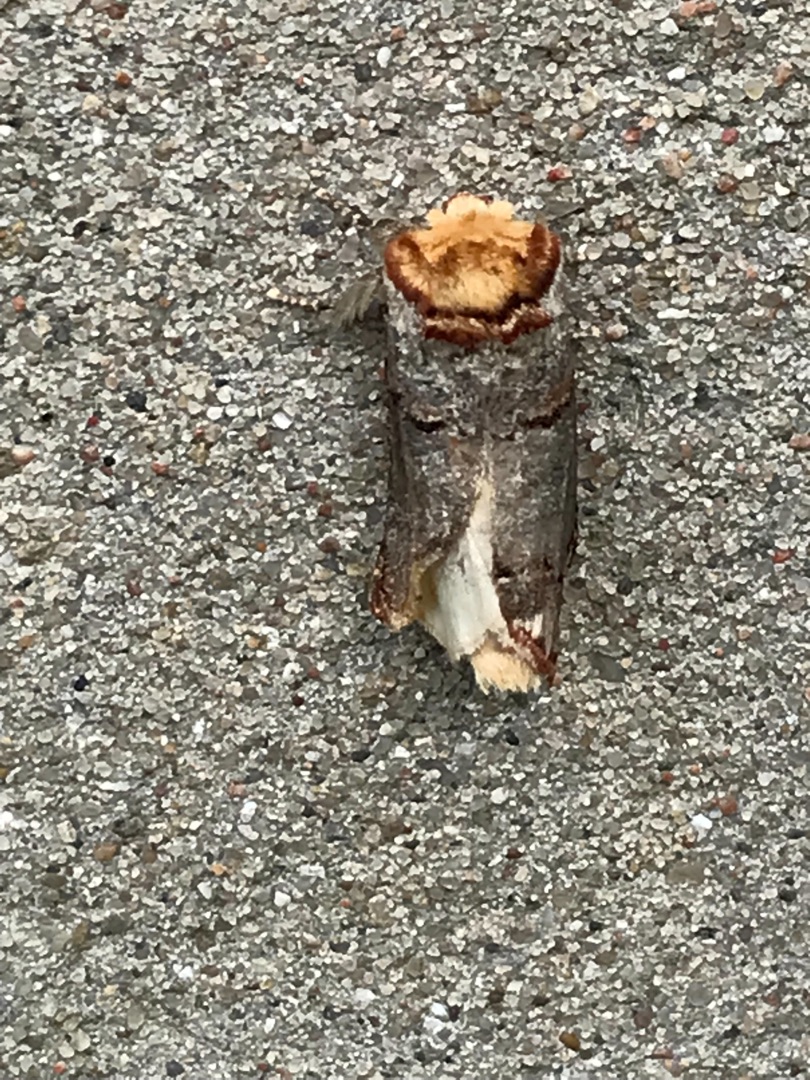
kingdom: Animalia
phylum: Arthropoda
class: Insecta
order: Lepidoptera
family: Notodontidae
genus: Phalera
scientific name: Phalera bucephala
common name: Måneplet
